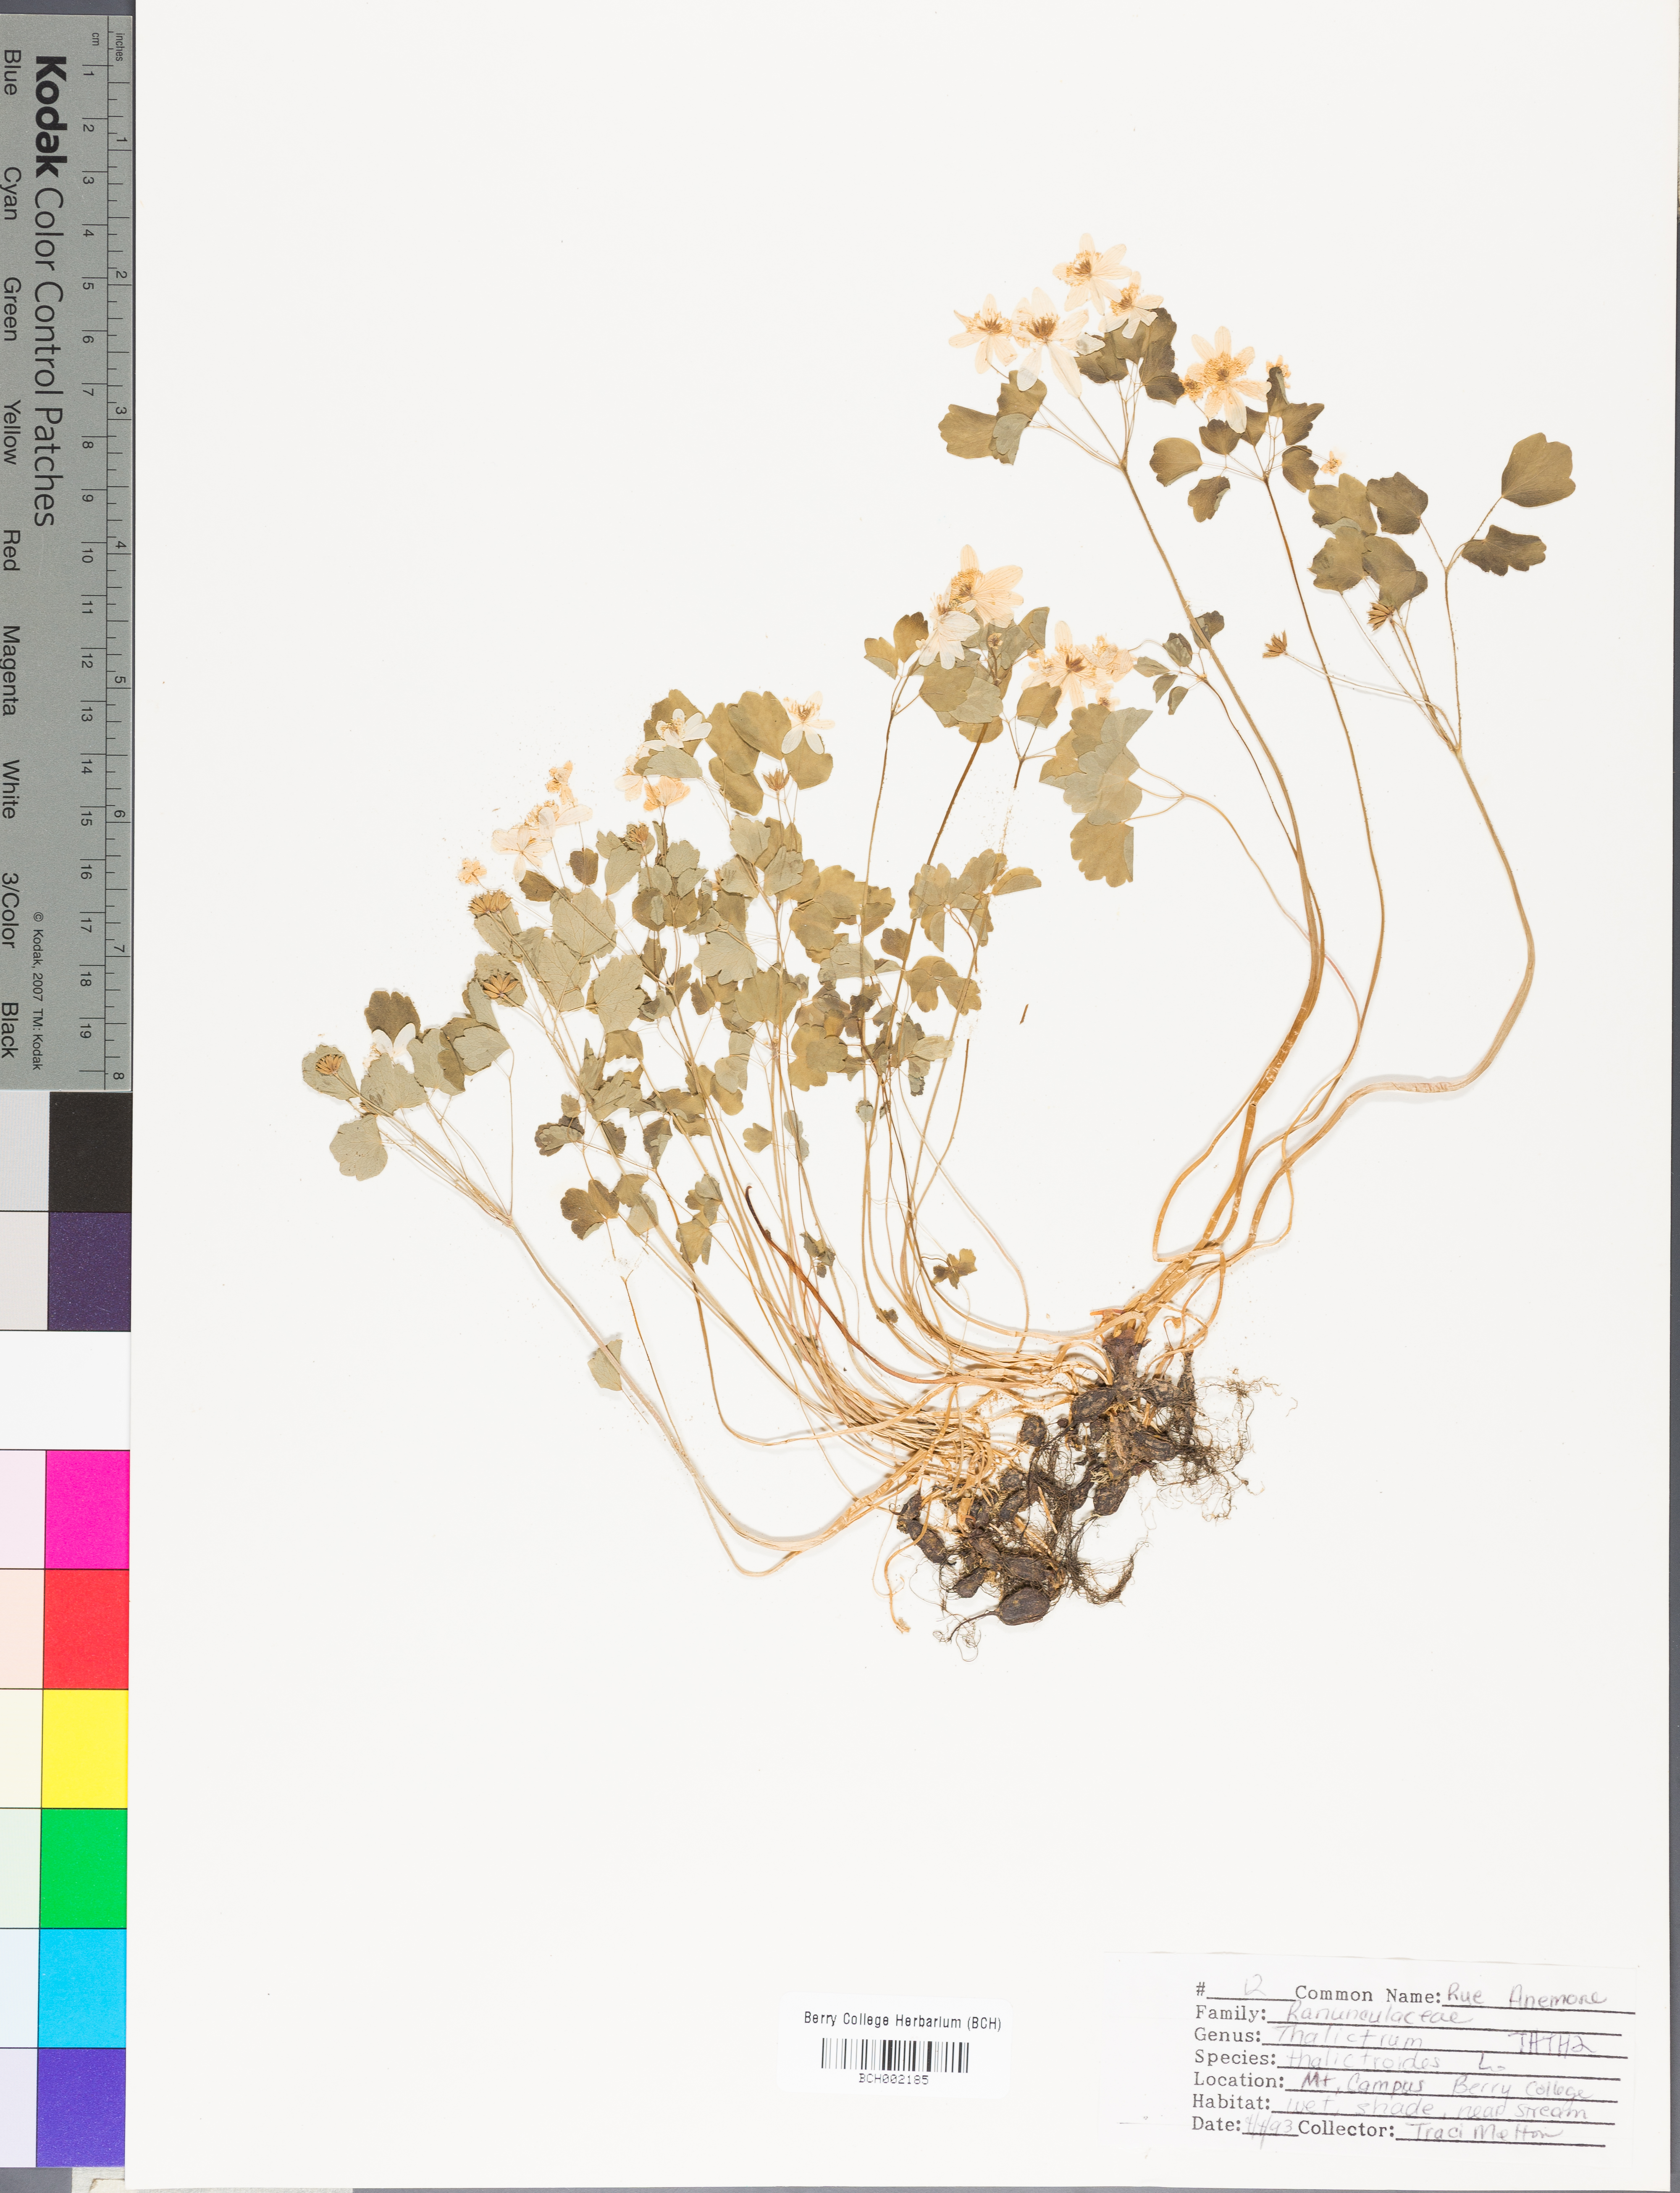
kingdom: Plantae
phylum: Tracheophyta
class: Magnoliopsida
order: Ranunculales
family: Ranunculaceae
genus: Thalictrum
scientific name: Thalictrum thalictroides
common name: Rue-anemone
